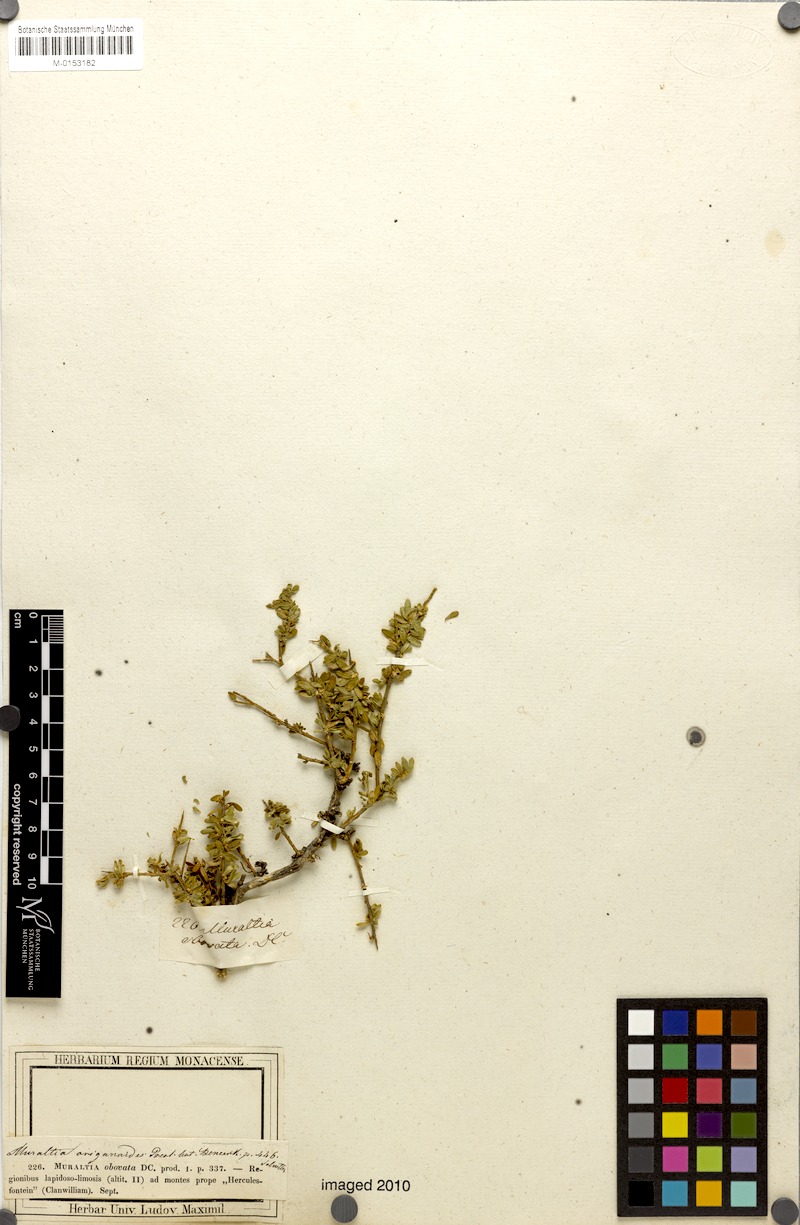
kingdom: Plantae
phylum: Tracheophyta
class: Magnoliopsida
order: Fabales
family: Polygalaceae
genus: Muraltia
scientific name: Muraltia origanoides
